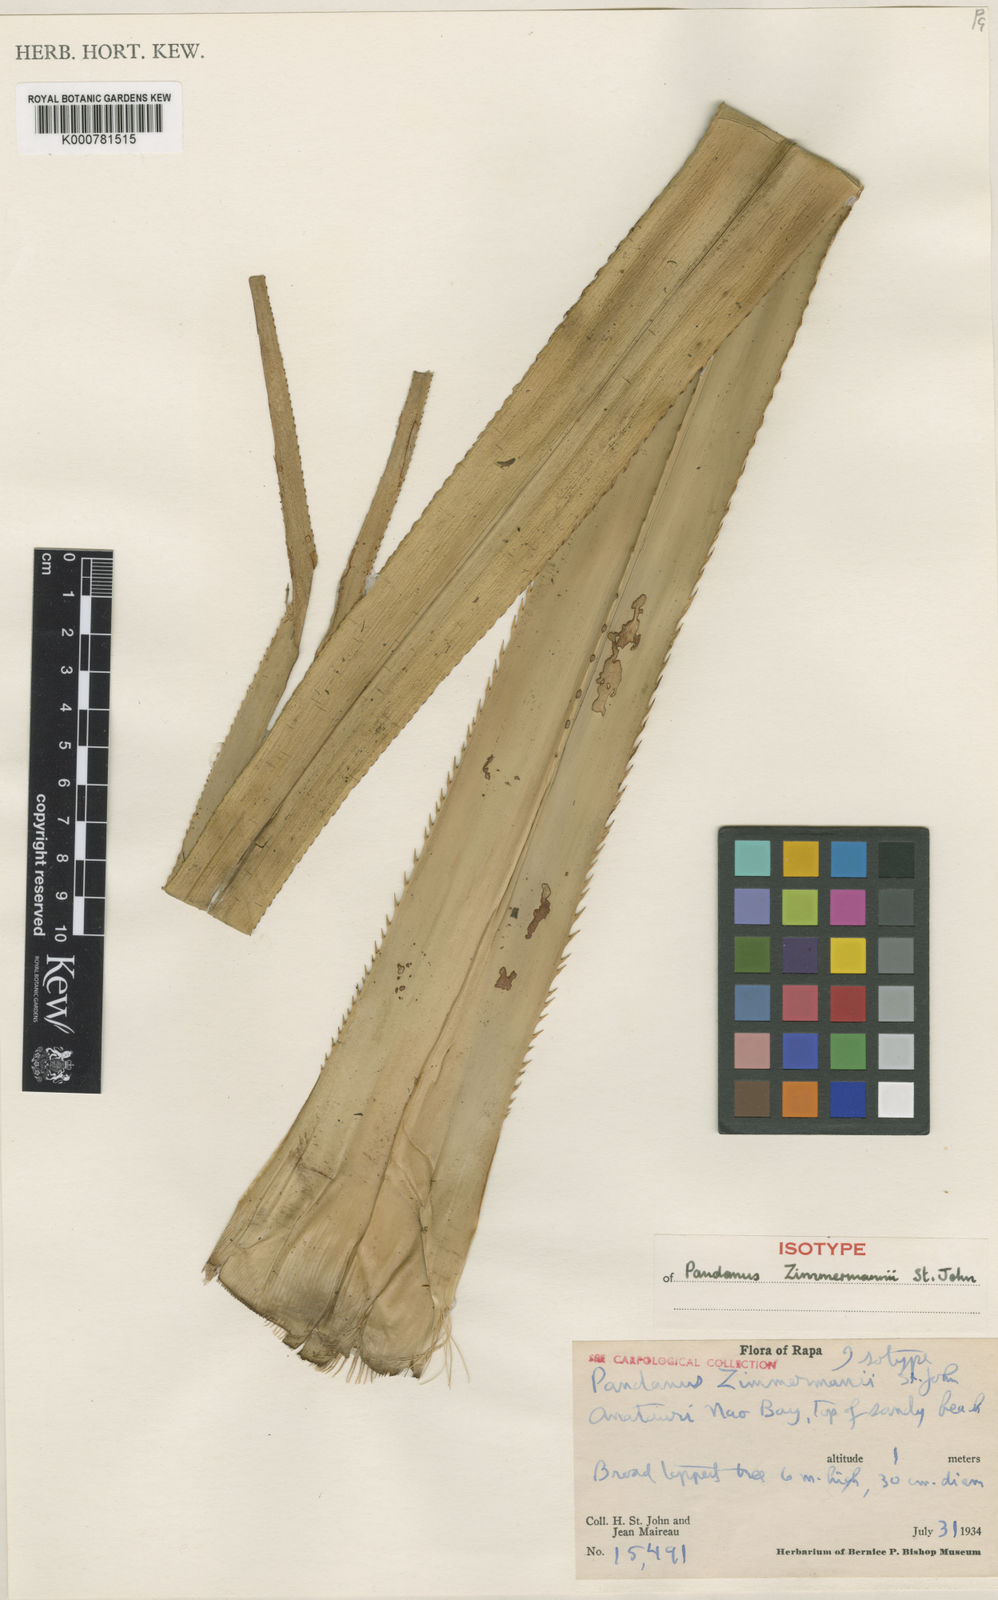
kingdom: Plantae
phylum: Tracheophyta
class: Liliopsida
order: Pandanales
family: Pandanaceae
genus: Pandanus
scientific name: Pandanus
